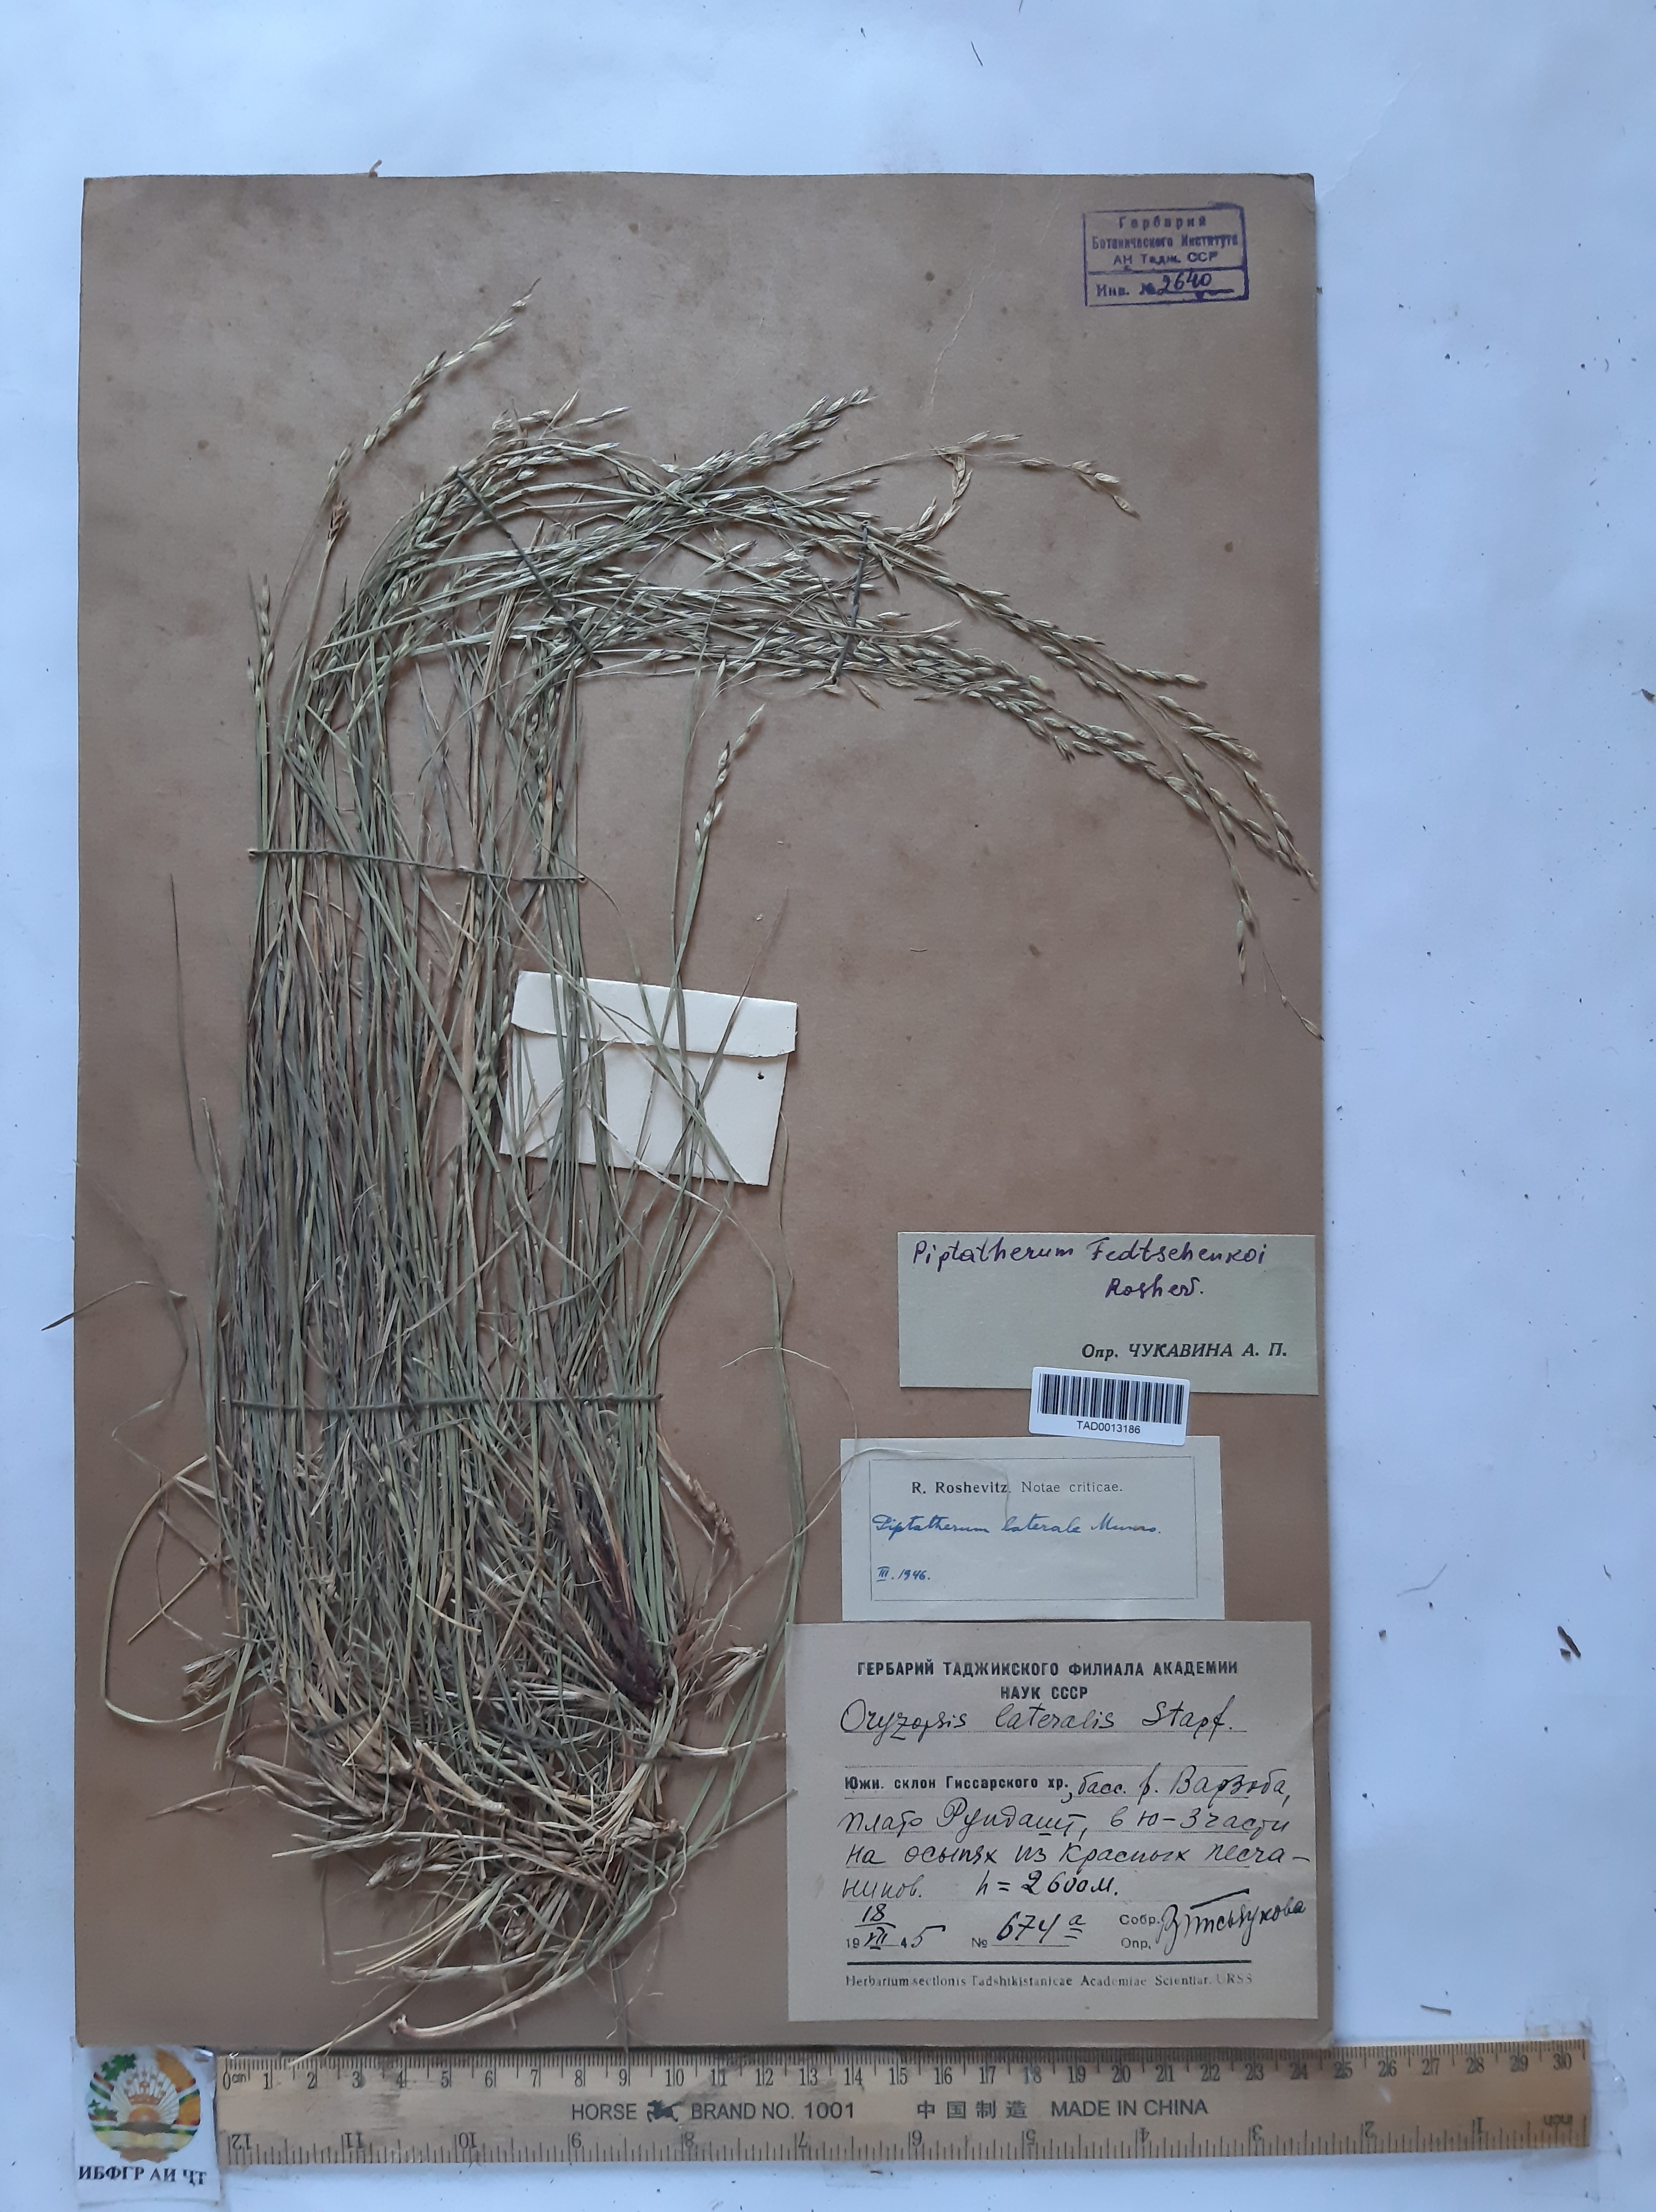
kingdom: Plantae
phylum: Tracheophyta
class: Liliopsida
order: Poales
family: Poaceae
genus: Piptatherum
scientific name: Piptatherum sogdianum
